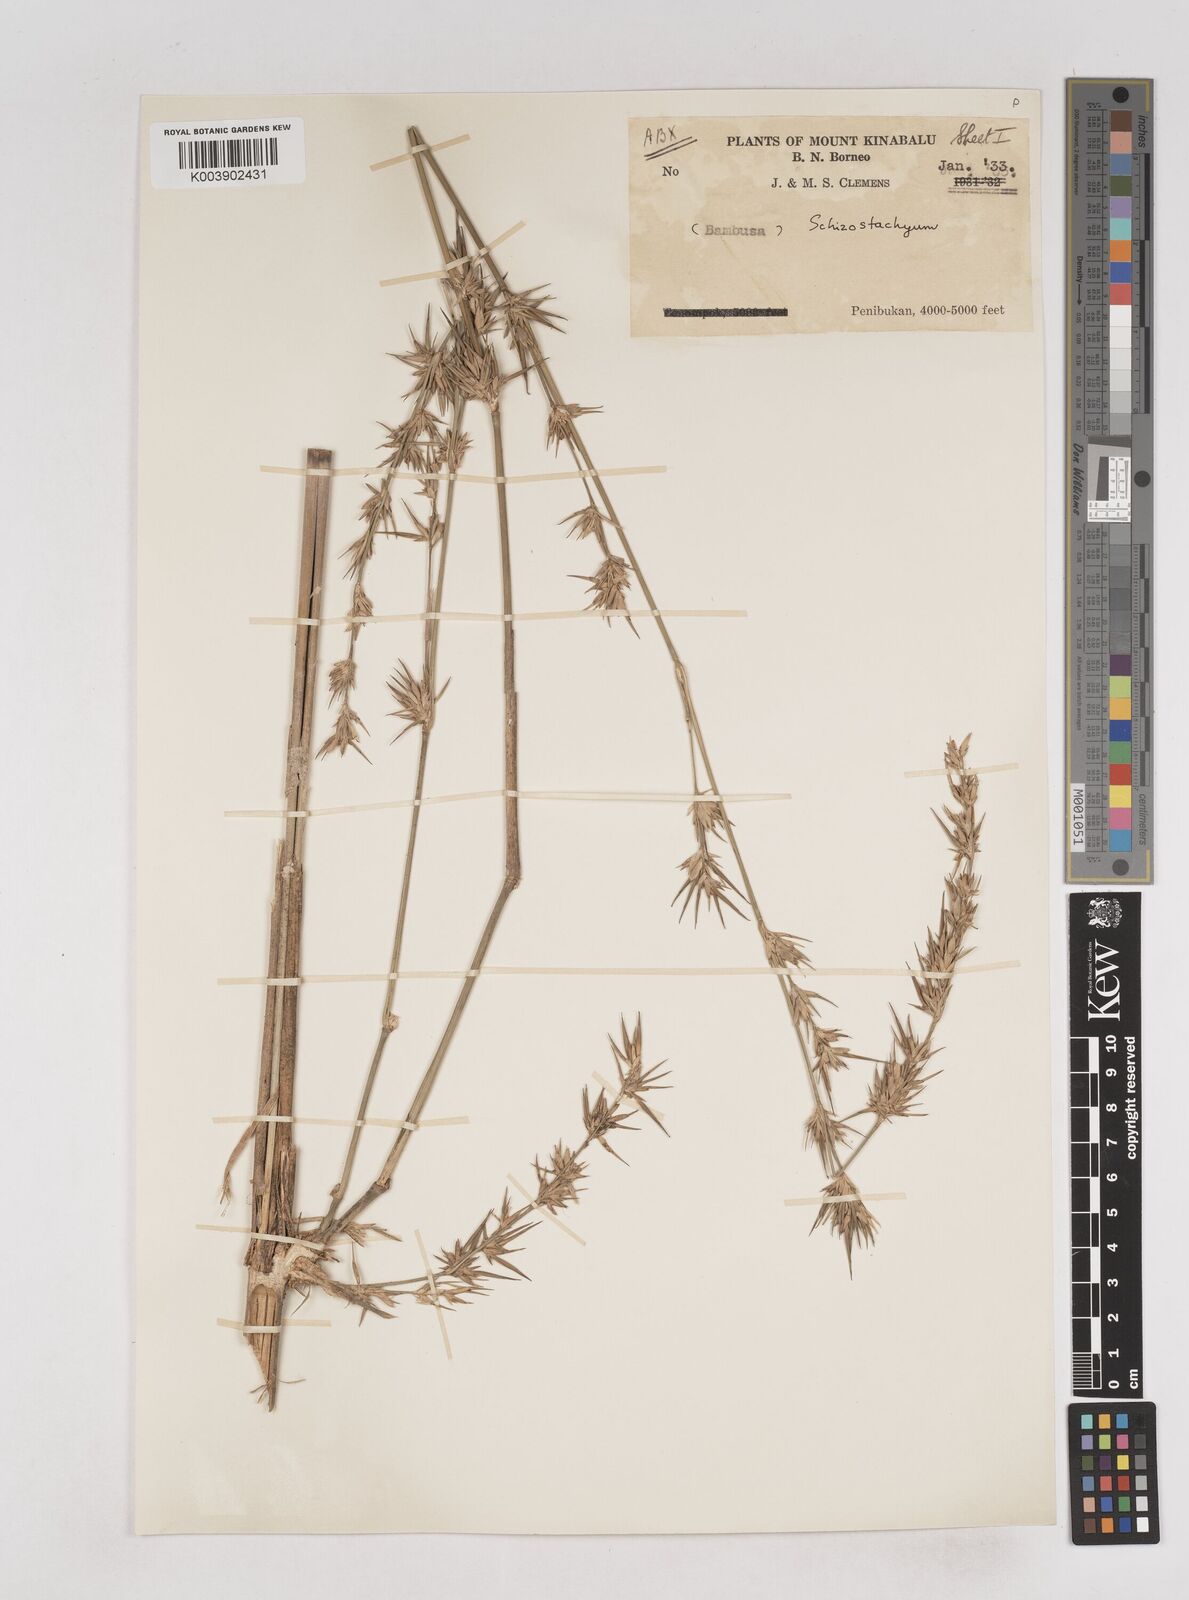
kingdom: Plantae
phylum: Tracheophyta
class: Liliopsida
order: Poales
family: Poaceae
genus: Schizostachyum
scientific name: Schizostachyum
